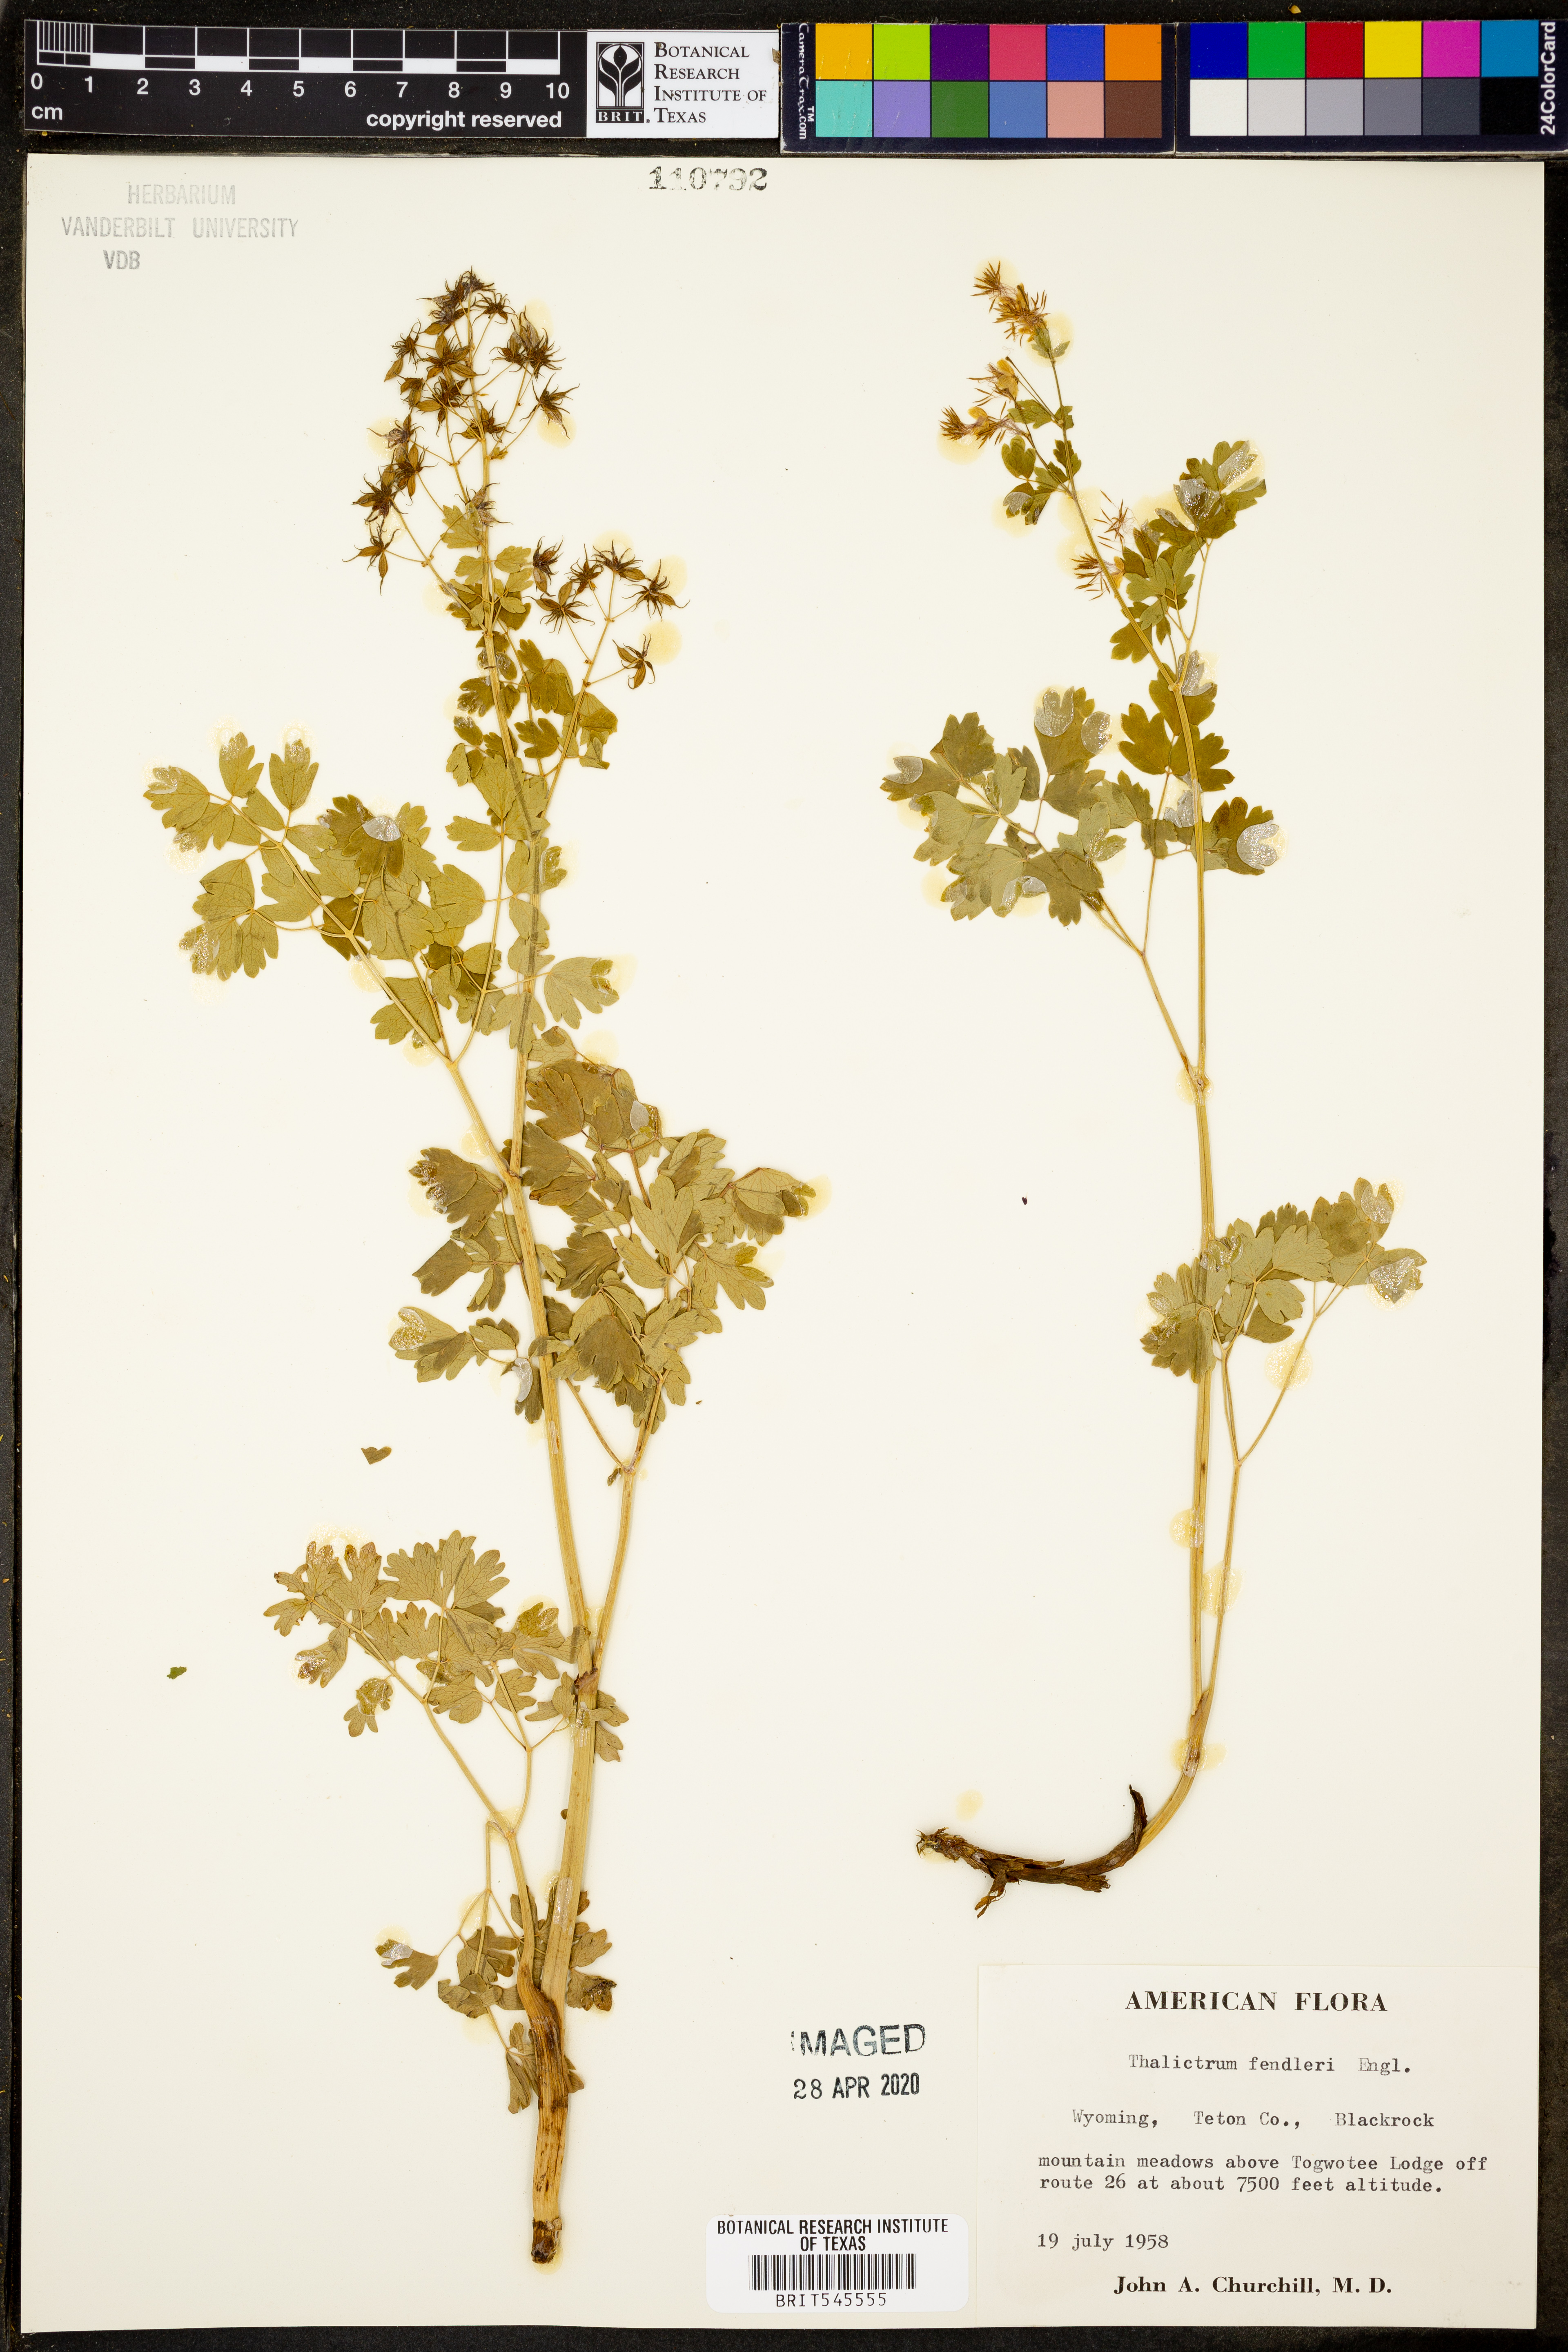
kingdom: Plantae
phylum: Tracheophyta
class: Magnoliopsida
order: Ranunculales
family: Ranunculaceae
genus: Thalictrum
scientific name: Thalictrum fendleri
